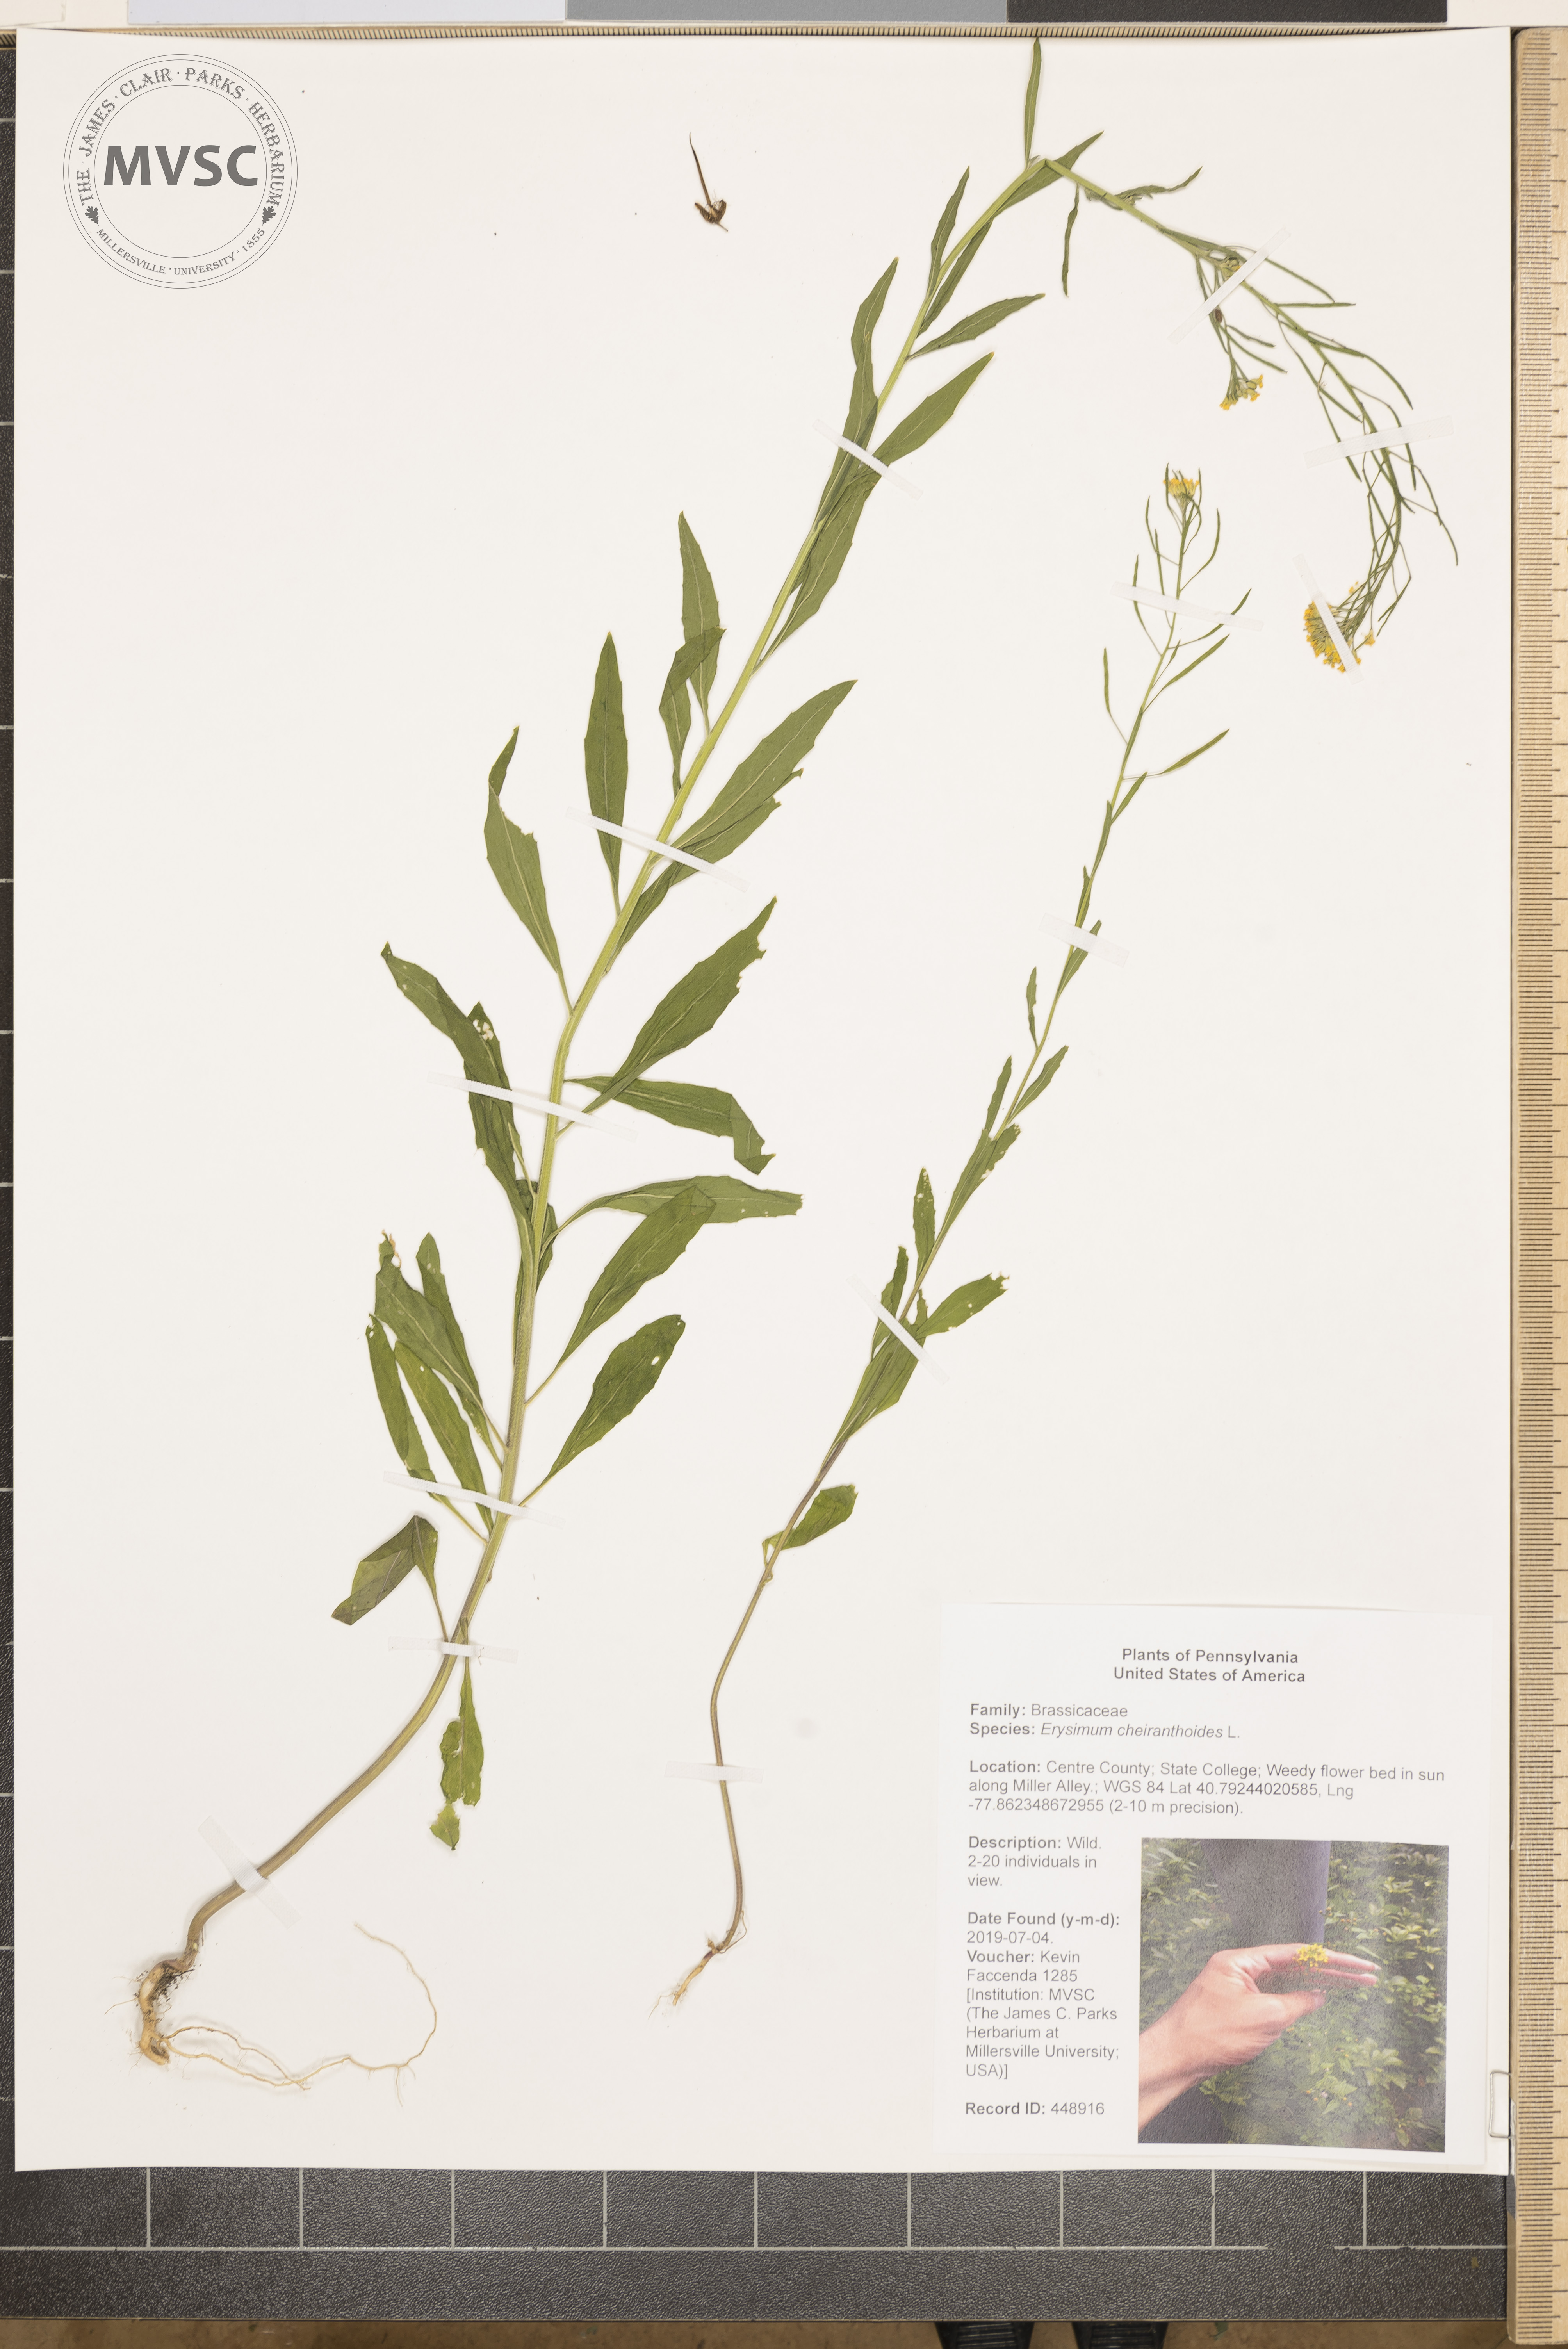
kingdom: Plantae
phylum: Tracheophyta
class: Magnoliopsida
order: Brassicales
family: Brassicaceae
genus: Erysimum
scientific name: Erysimum cheiranthoides
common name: Treacle mustard
